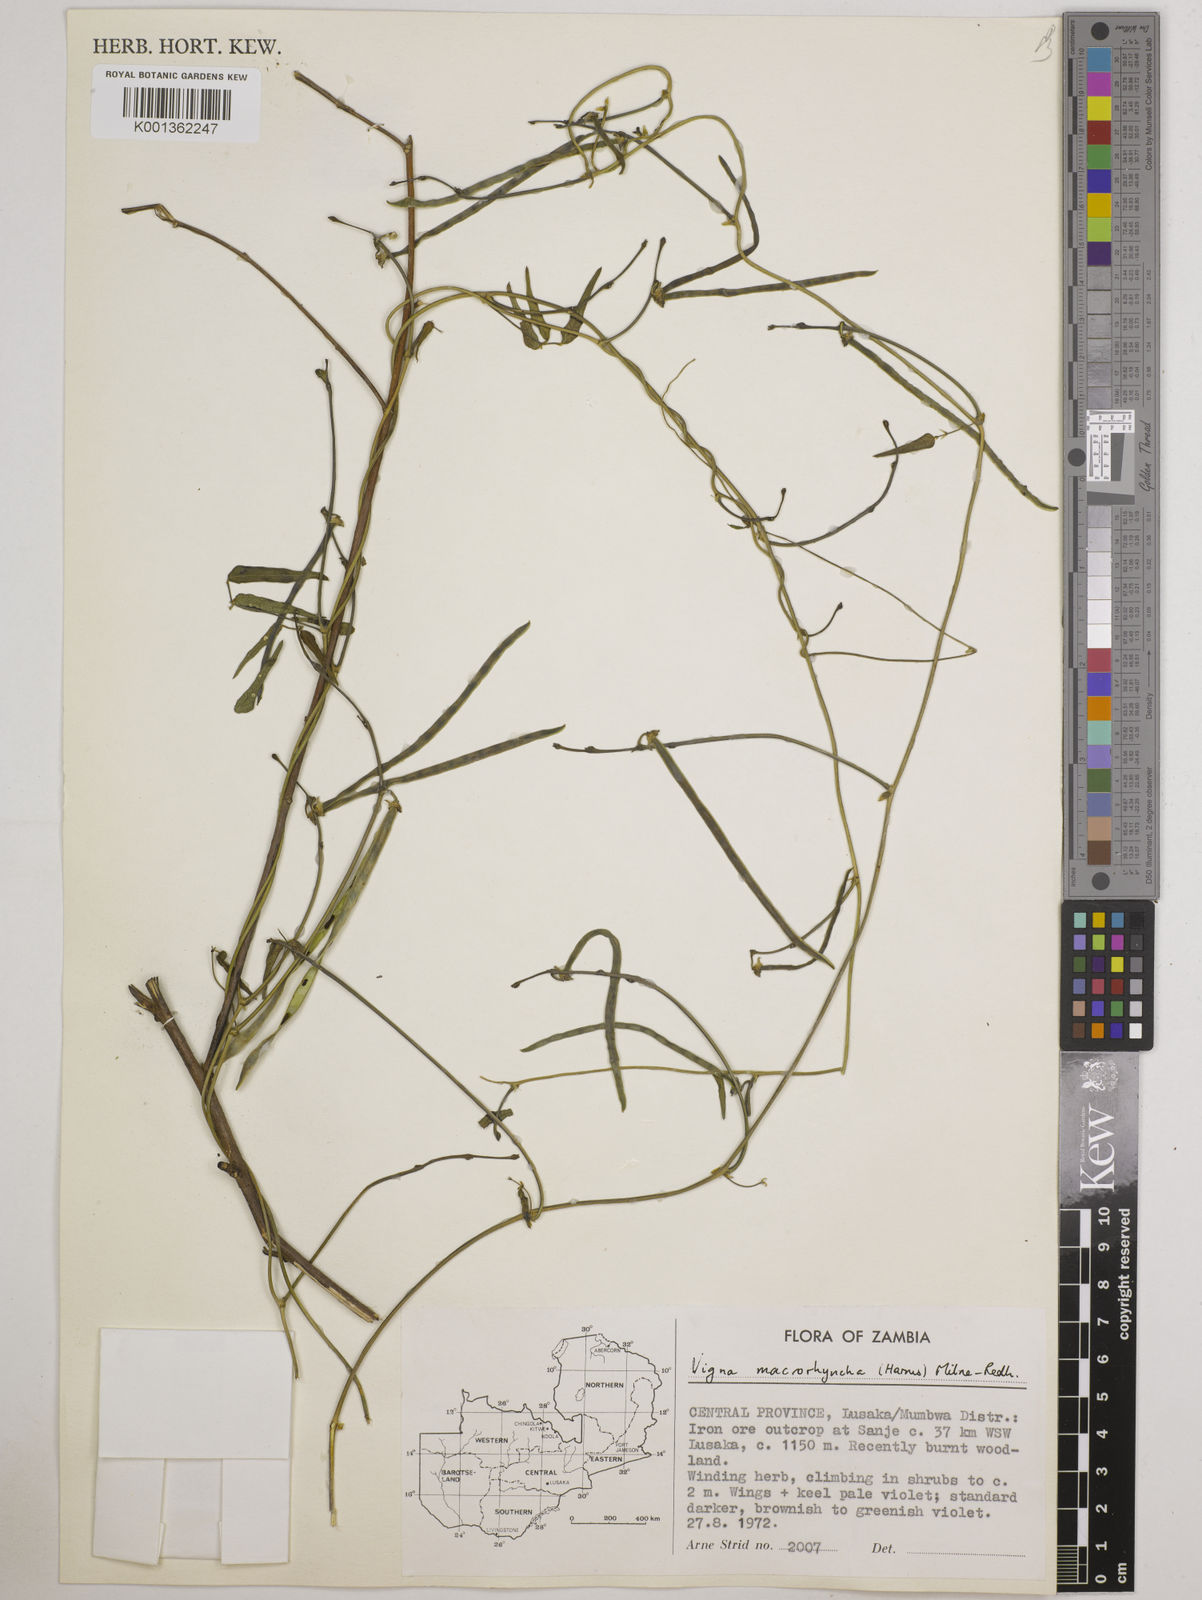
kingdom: Plantae
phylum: Tracheophyta
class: Magnoliopsida
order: Fabales
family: Fabaceae
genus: Wajira
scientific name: Wajira grahamiana
